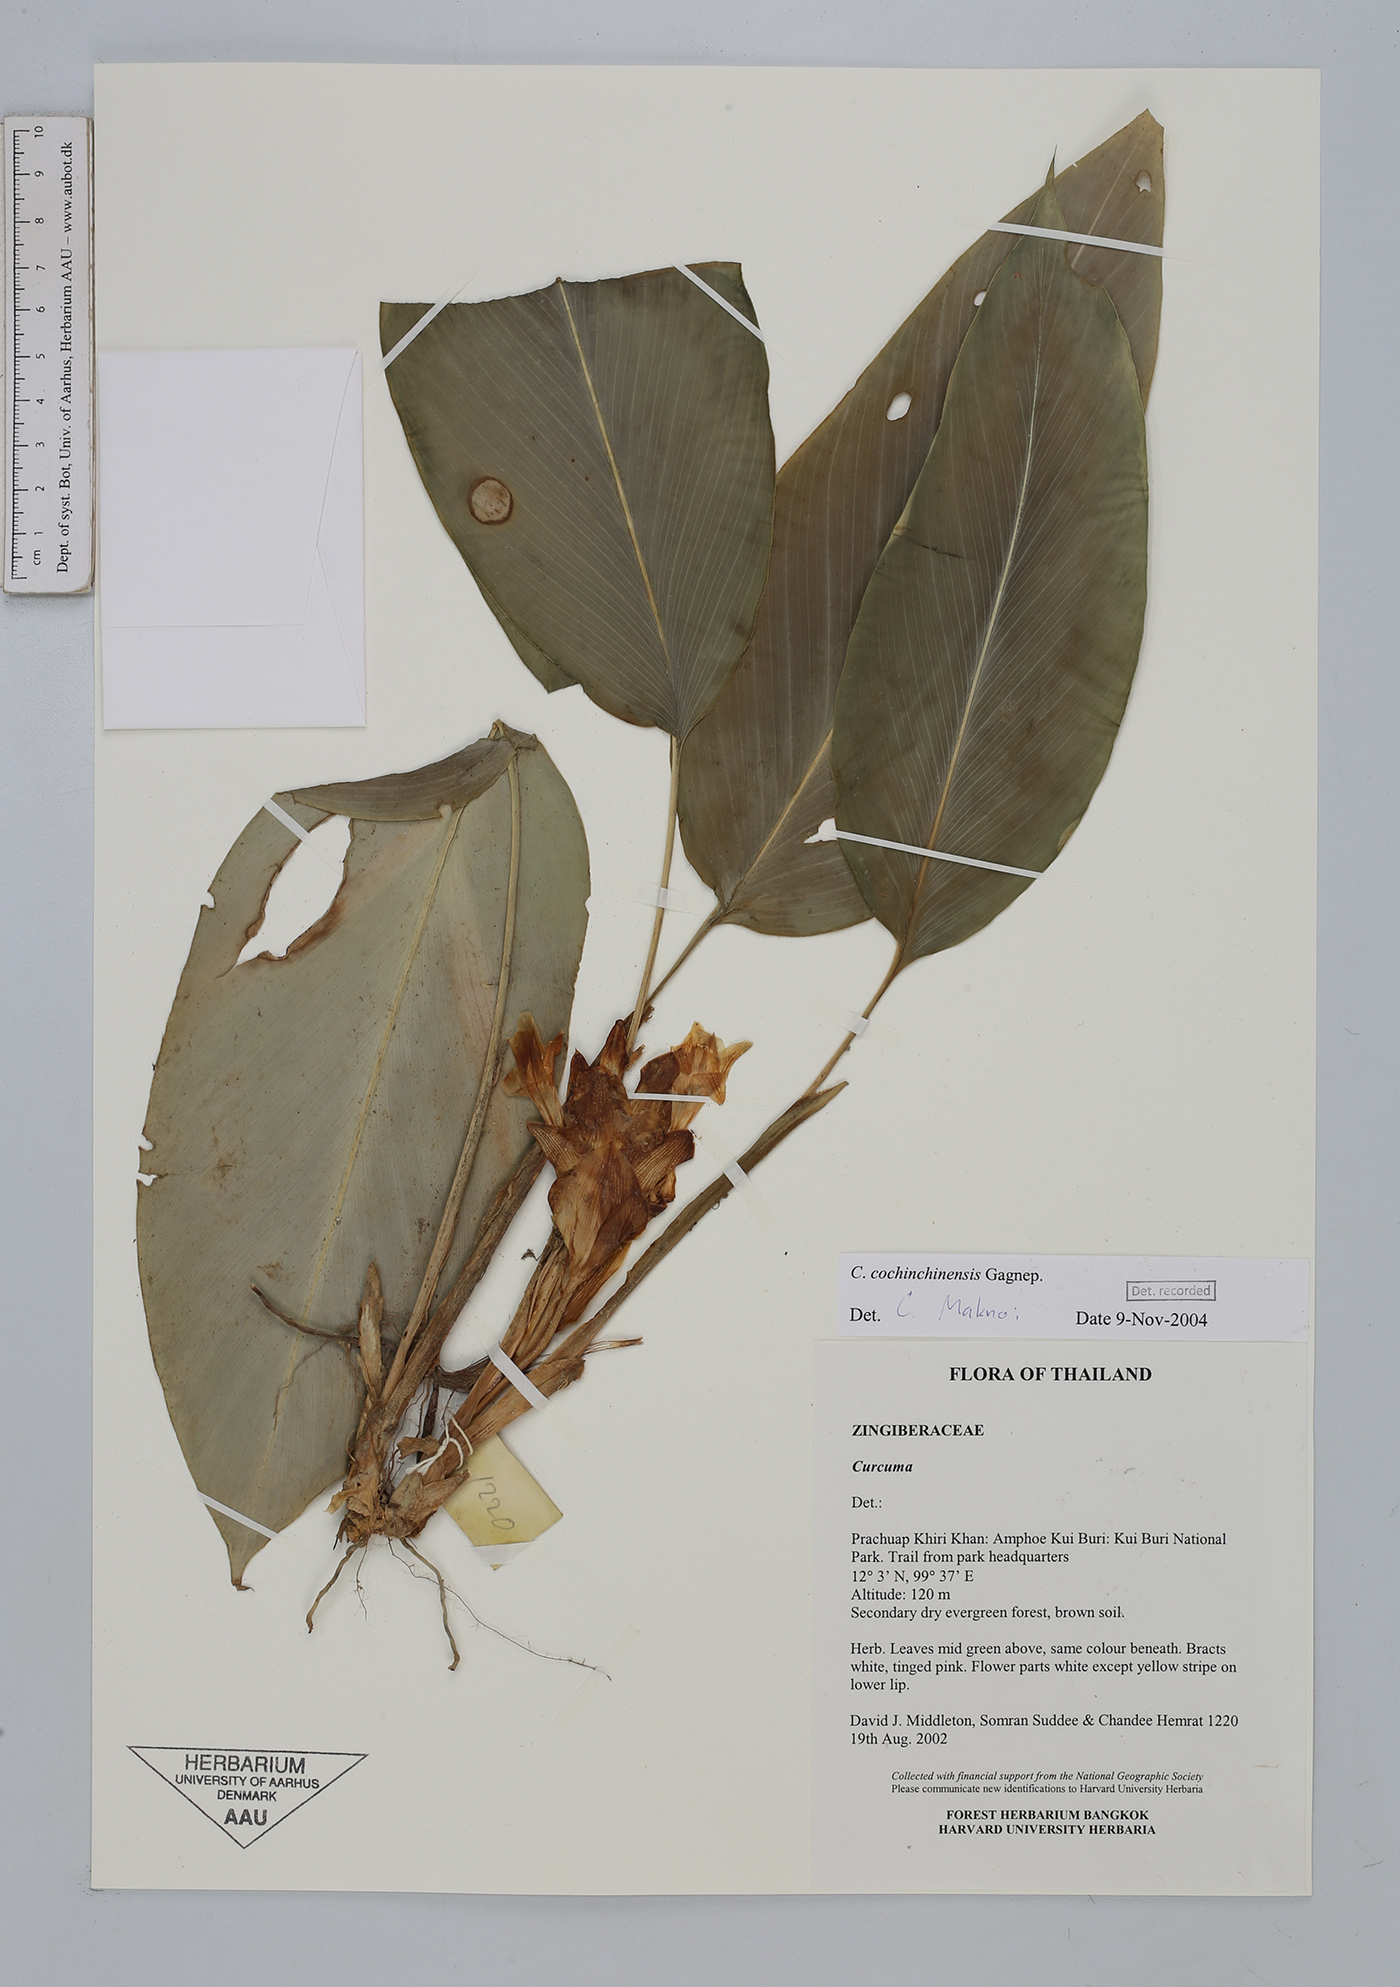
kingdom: Plantae
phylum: Tracheophyta
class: Liliopsida
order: Zingiberales
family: Zingiberaceae
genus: Curcuma
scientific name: Curcuma cochinchinensis
